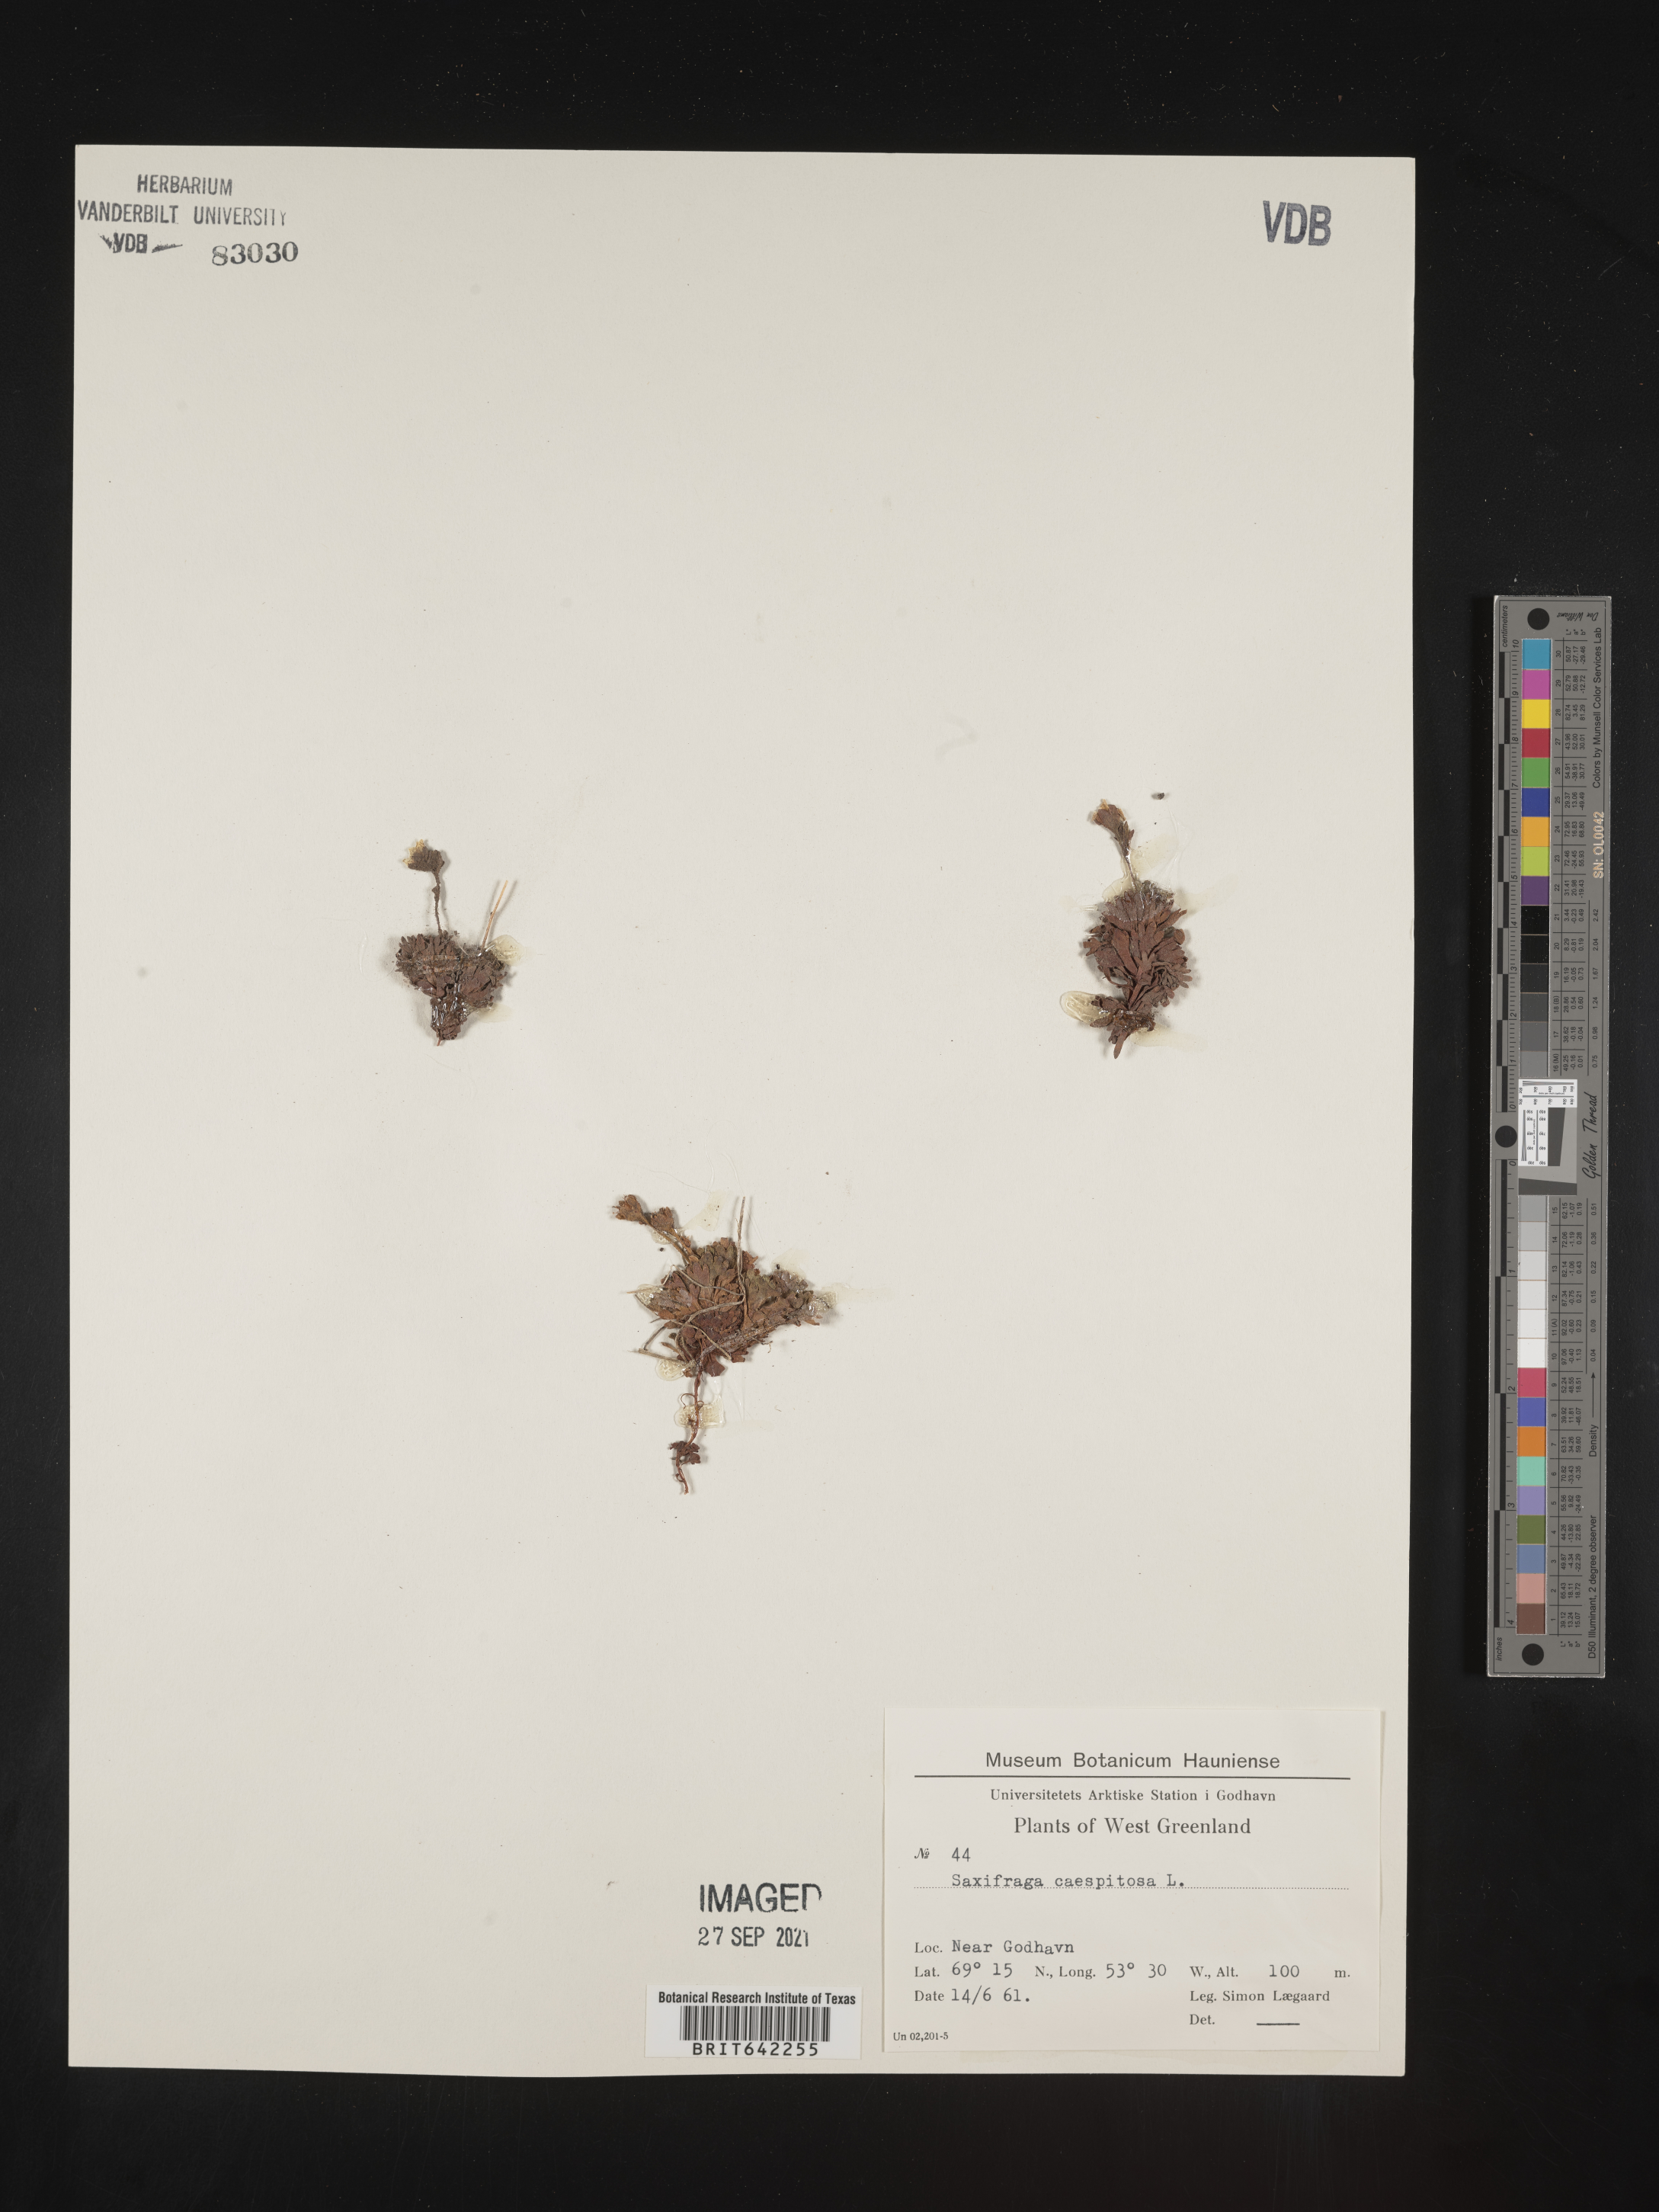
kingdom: Plantae
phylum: Tracheophyta
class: Magnoliopsida
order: Saxifragales
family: Saxifragaceae
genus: Saxifraga
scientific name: Saxifraga
